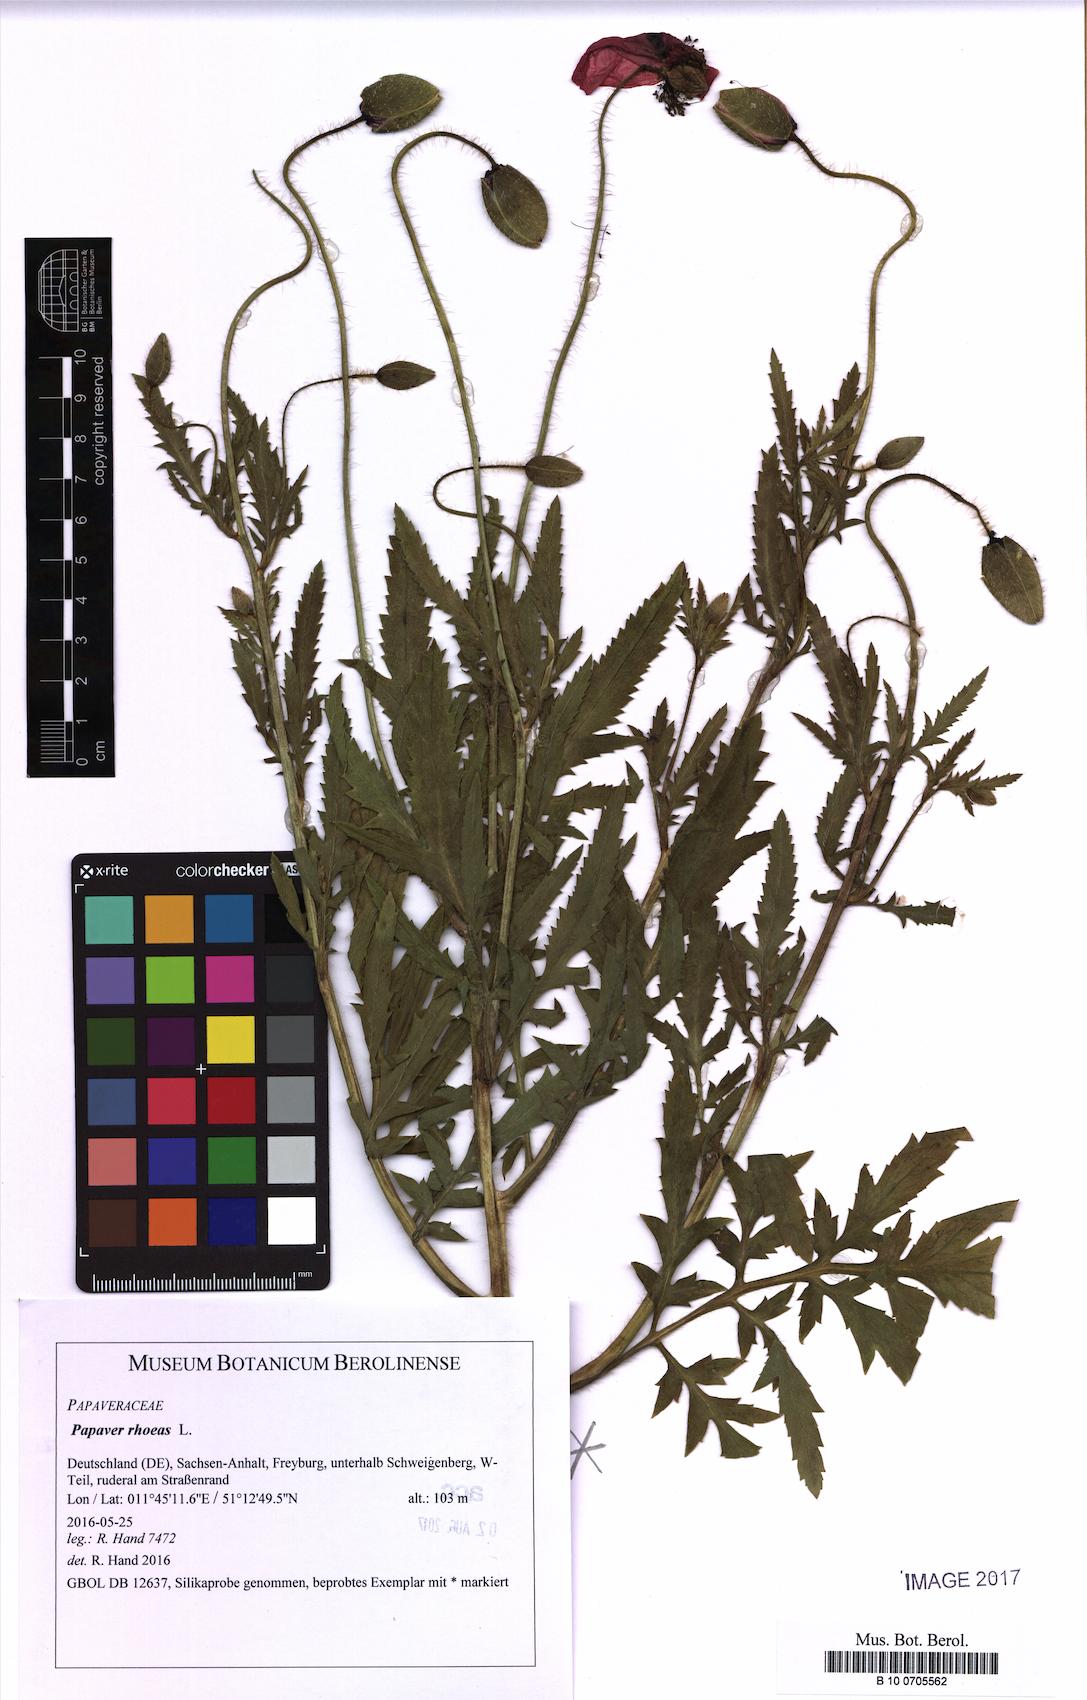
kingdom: Plantae
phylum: Tracheophyta
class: Magnoliopsida
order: Ranunculales
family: Papaveraceae
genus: Papaver
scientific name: Papaver rhoeas
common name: Corn poppy
